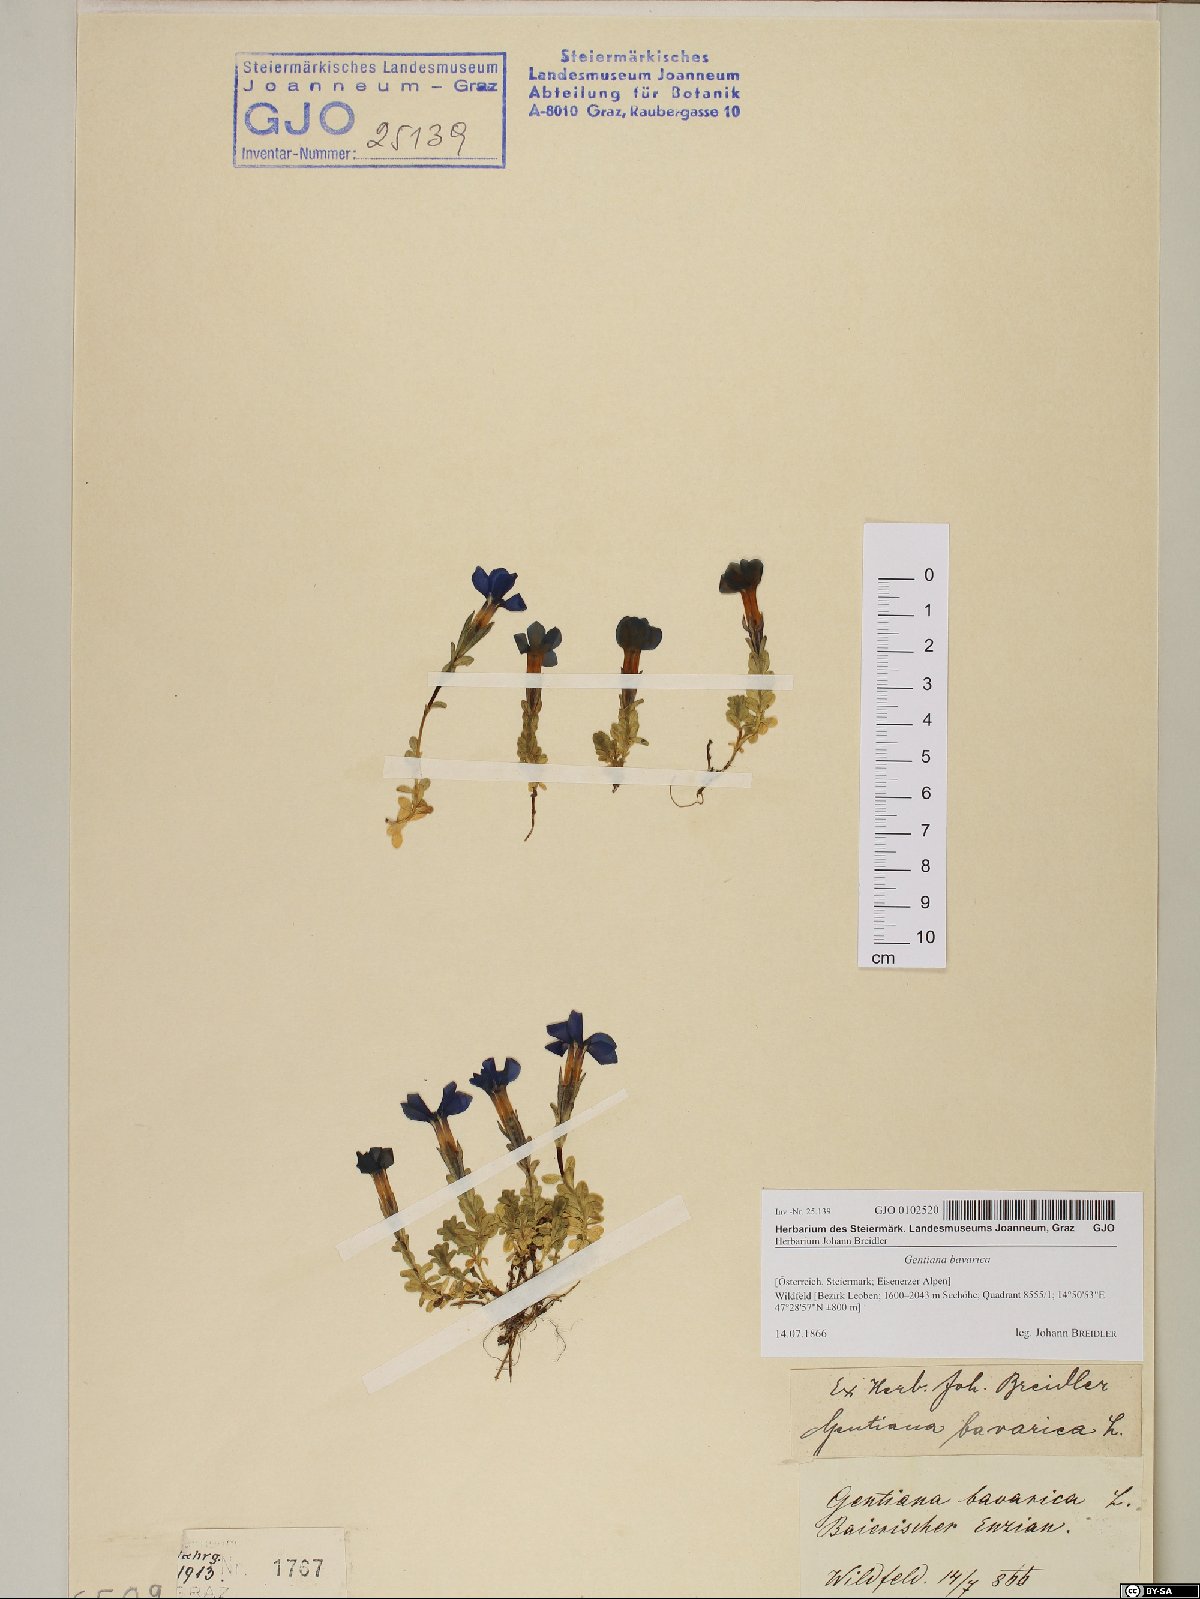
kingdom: Plantae
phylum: Tracheophyta
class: Magnoliopsida
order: Gentianales
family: Gentianaceae
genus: Gentiana
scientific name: Gentiana bavarica
